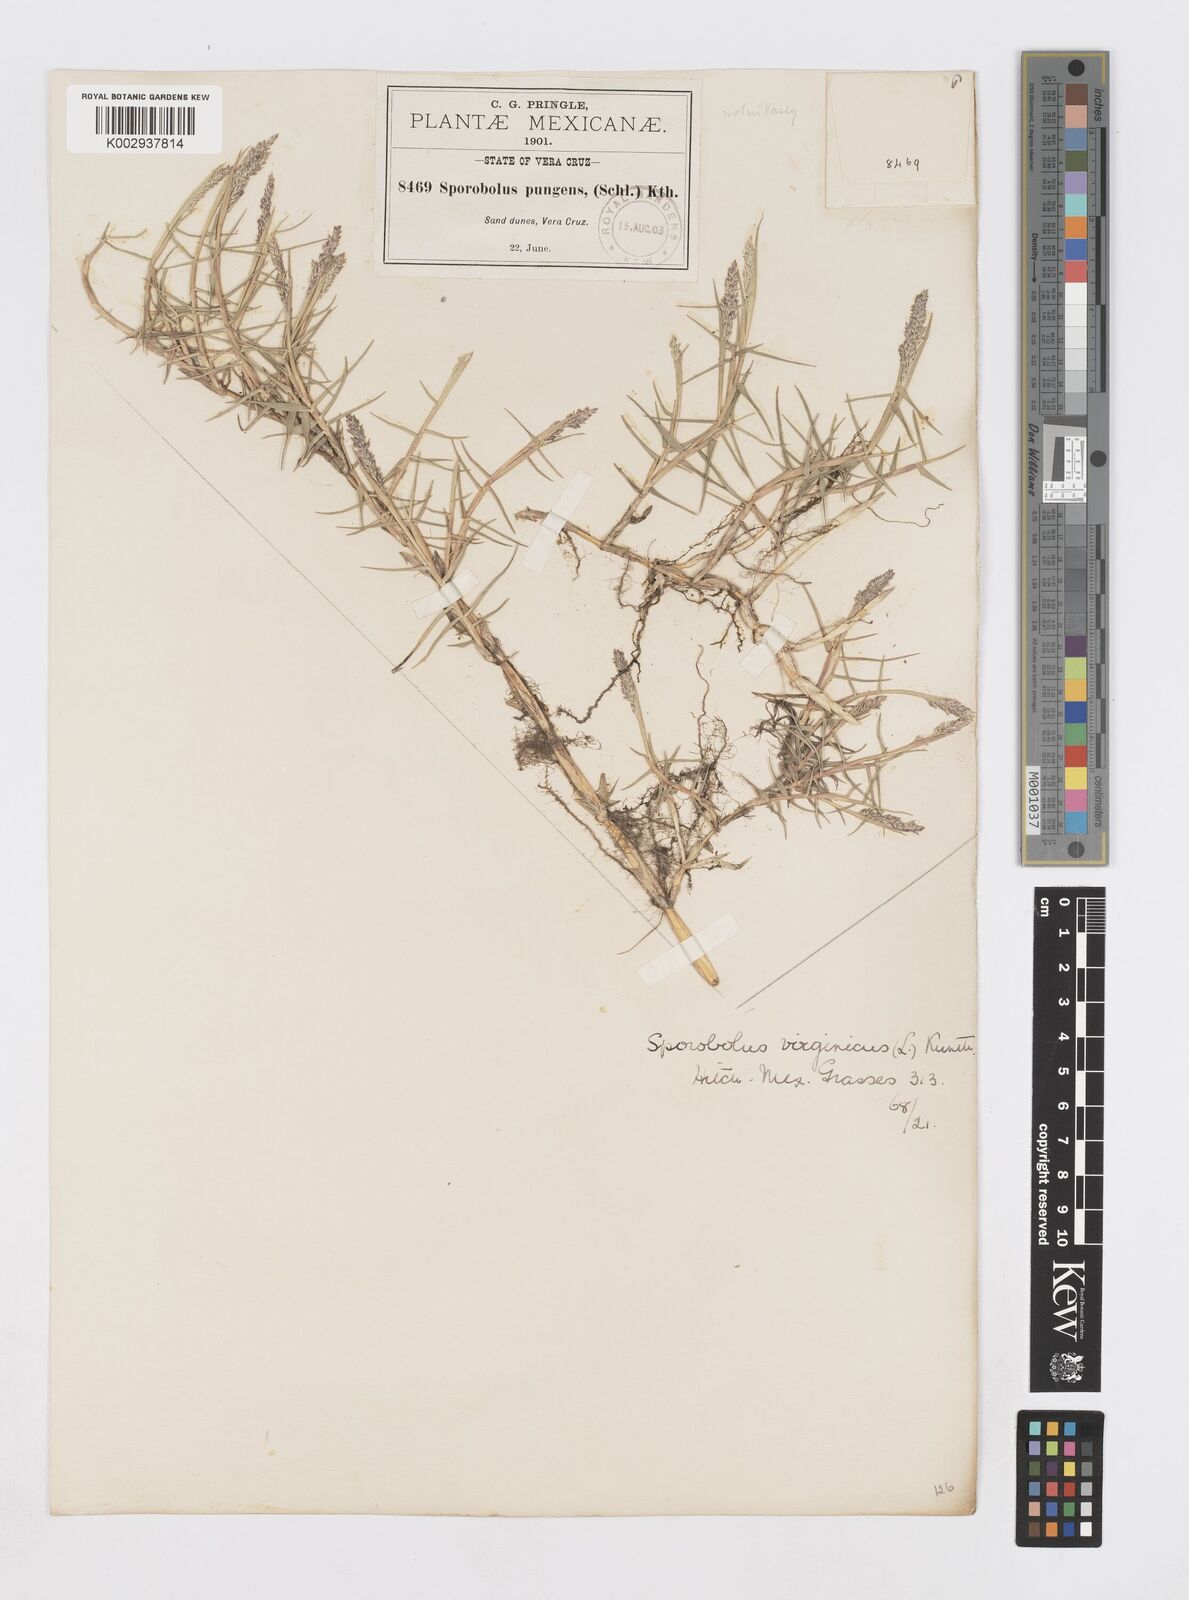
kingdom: Plantae
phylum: Tracheophyta
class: Liliopsida
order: Poales
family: Poaceae
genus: Sporobolus
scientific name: Sporobolus virginicus
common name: Beach dropseed
